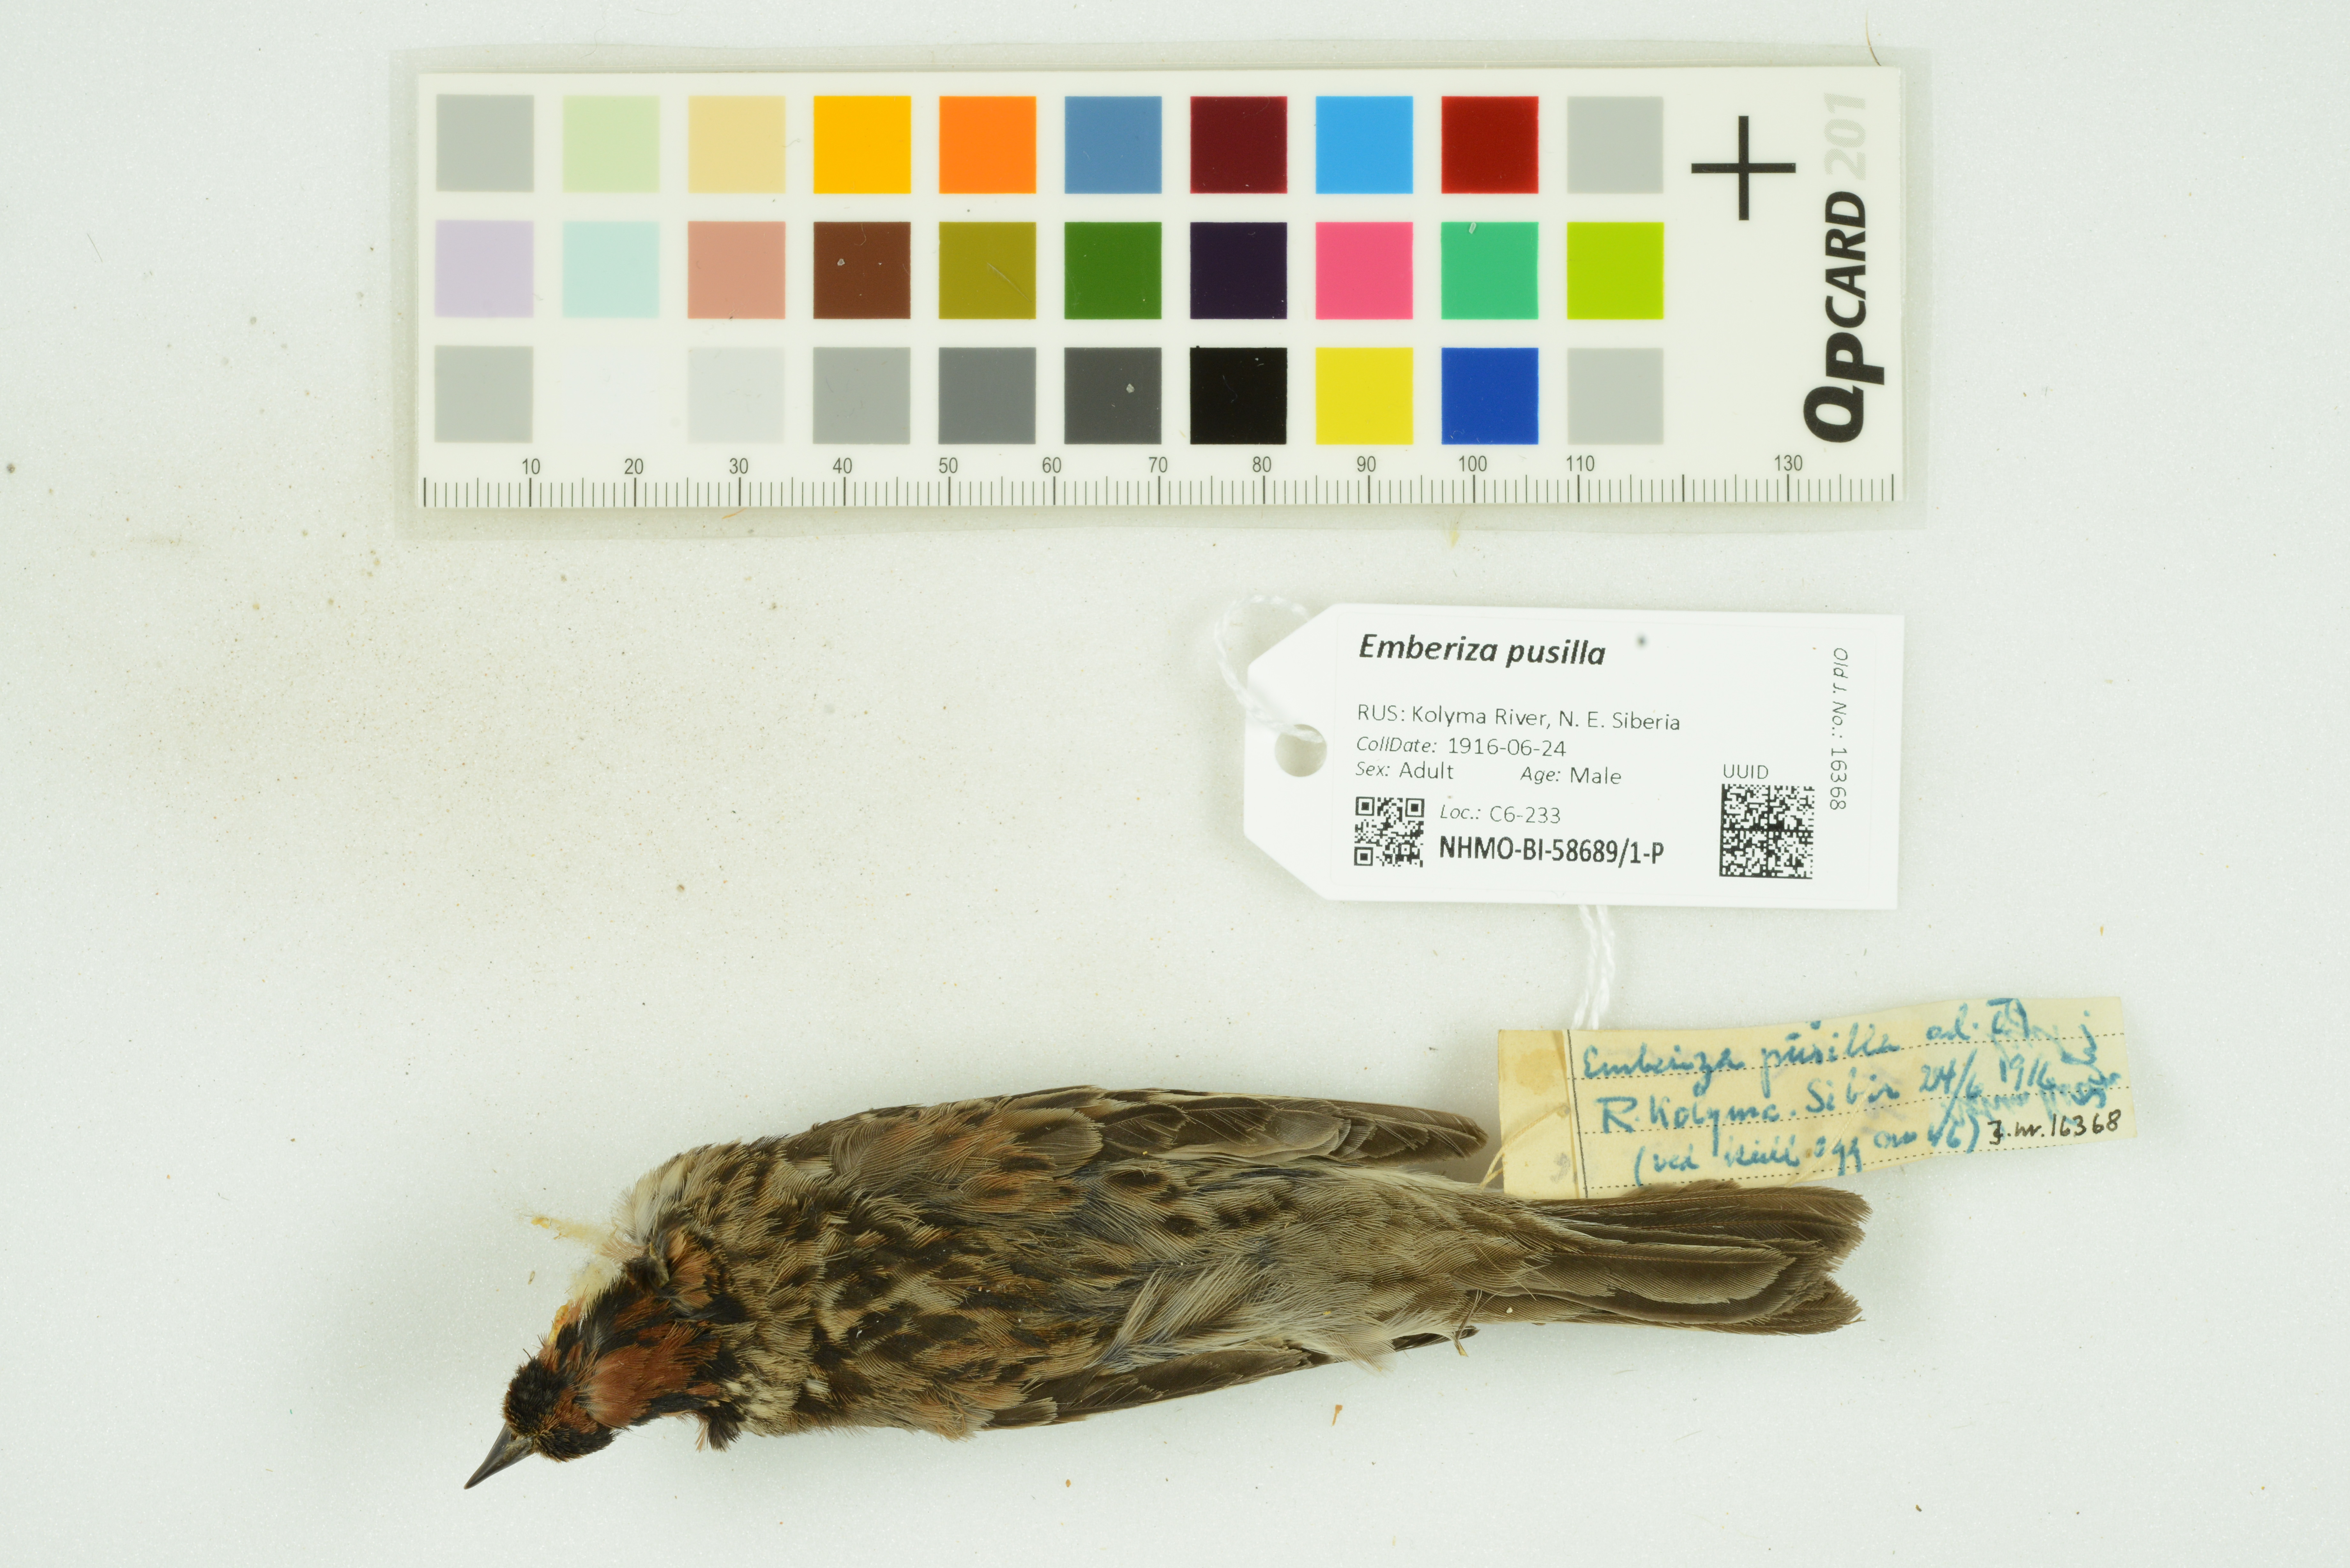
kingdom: Animalia
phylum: Chordata
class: Aves
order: Passeriformes
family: Emberizidae
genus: Emberiza
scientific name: Emberiza pusilla
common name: Little bunting
